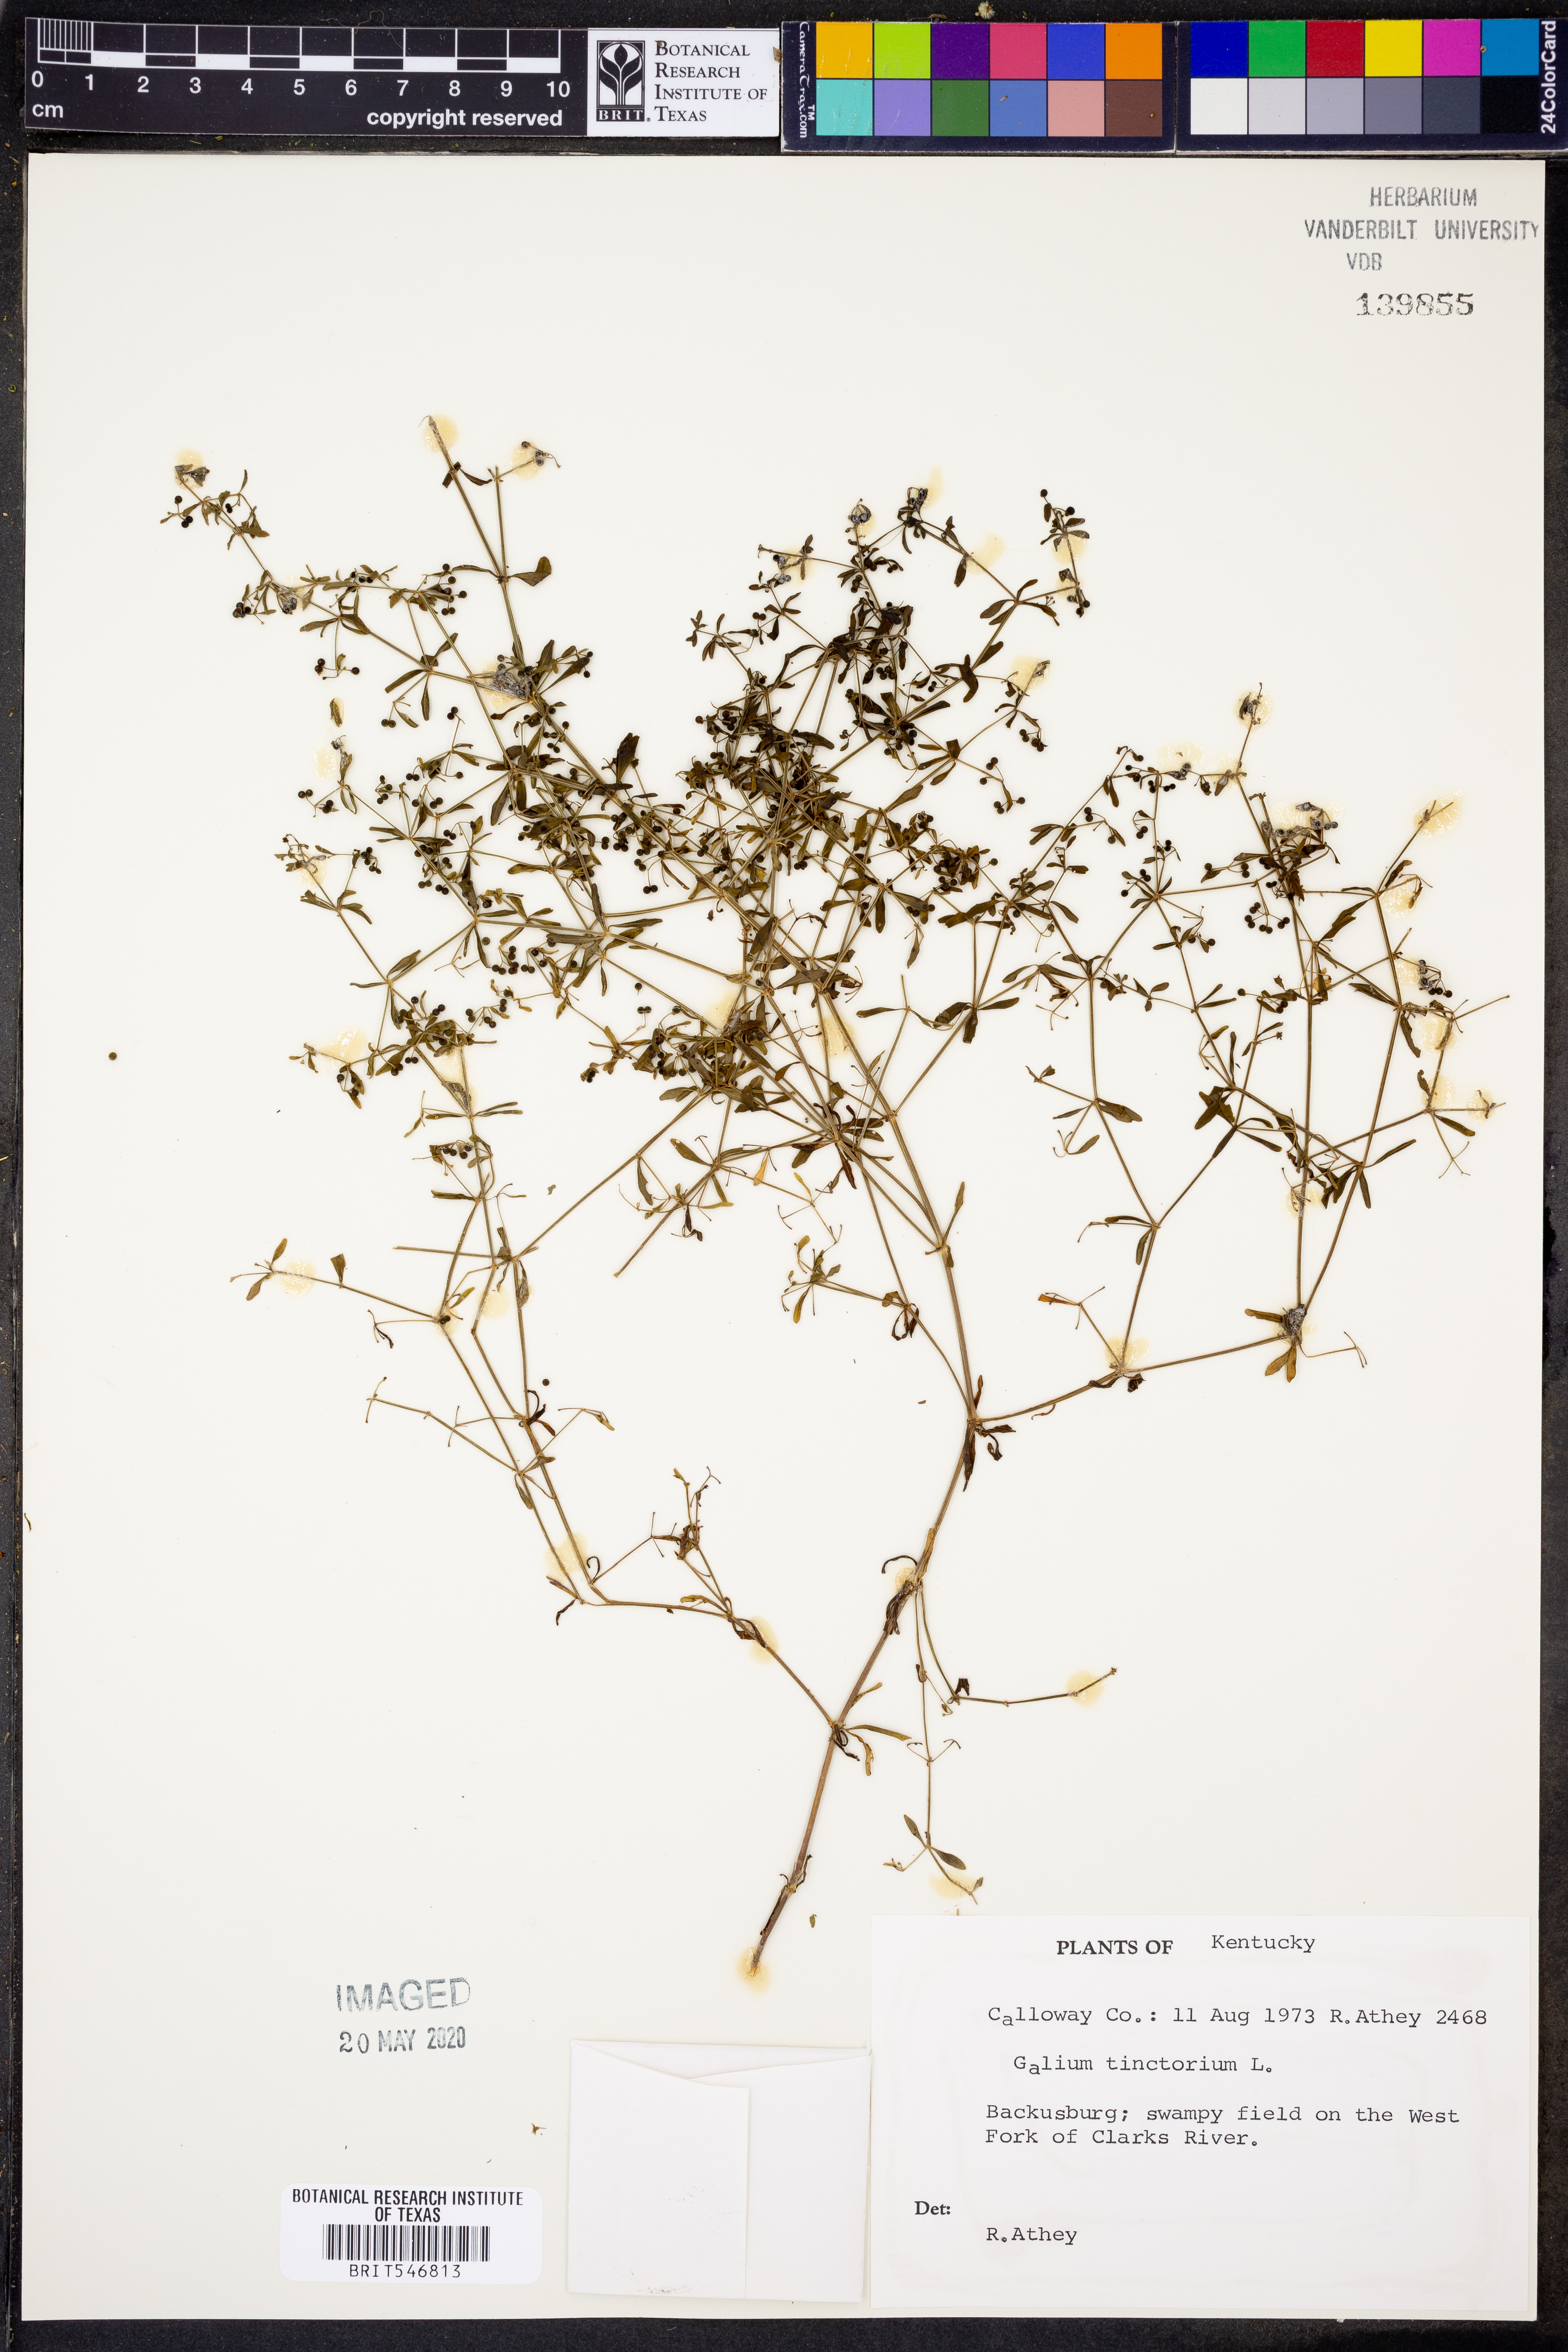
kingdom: Plantae
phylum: Tracheophyta
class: Magnoliopsida
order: Gentianales
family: Rubiaceae
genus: Asperula
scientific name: Asperula tinctoria
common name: Dyer's woodruff
